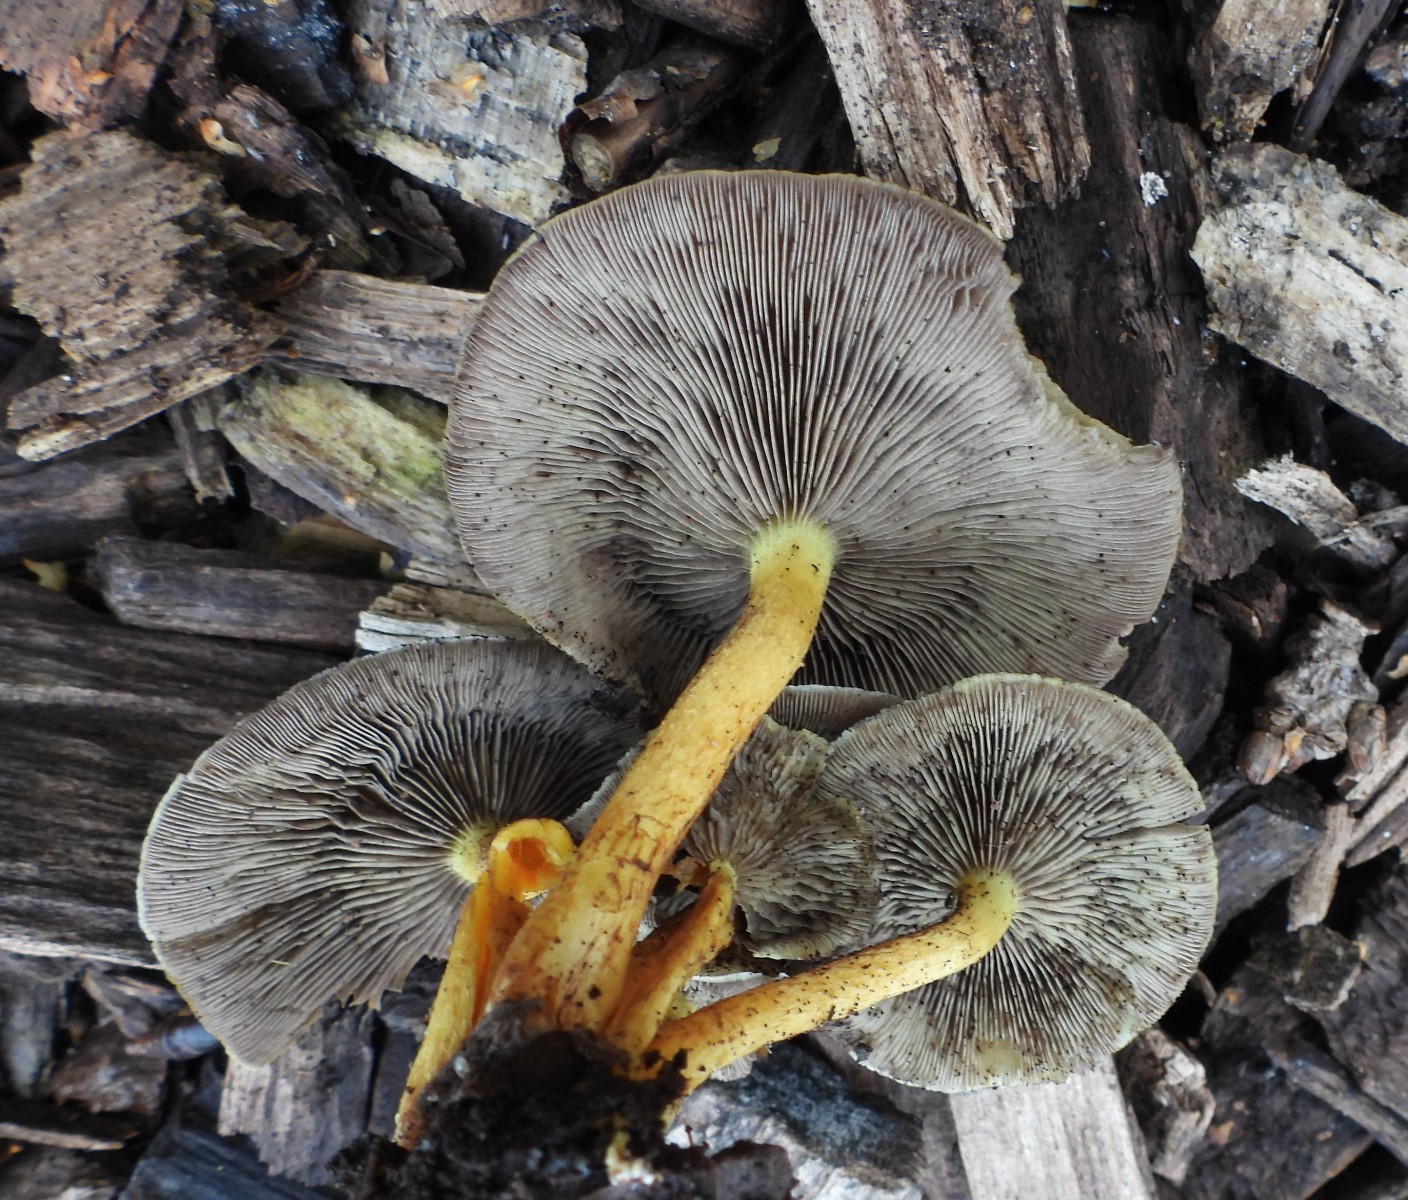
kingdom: Fungi
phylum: Basidiomycota
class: Agaricomycetes
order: Agaricales
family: Strophariaceae
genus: Hypholoma
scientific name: Hypholoma fasciculare
